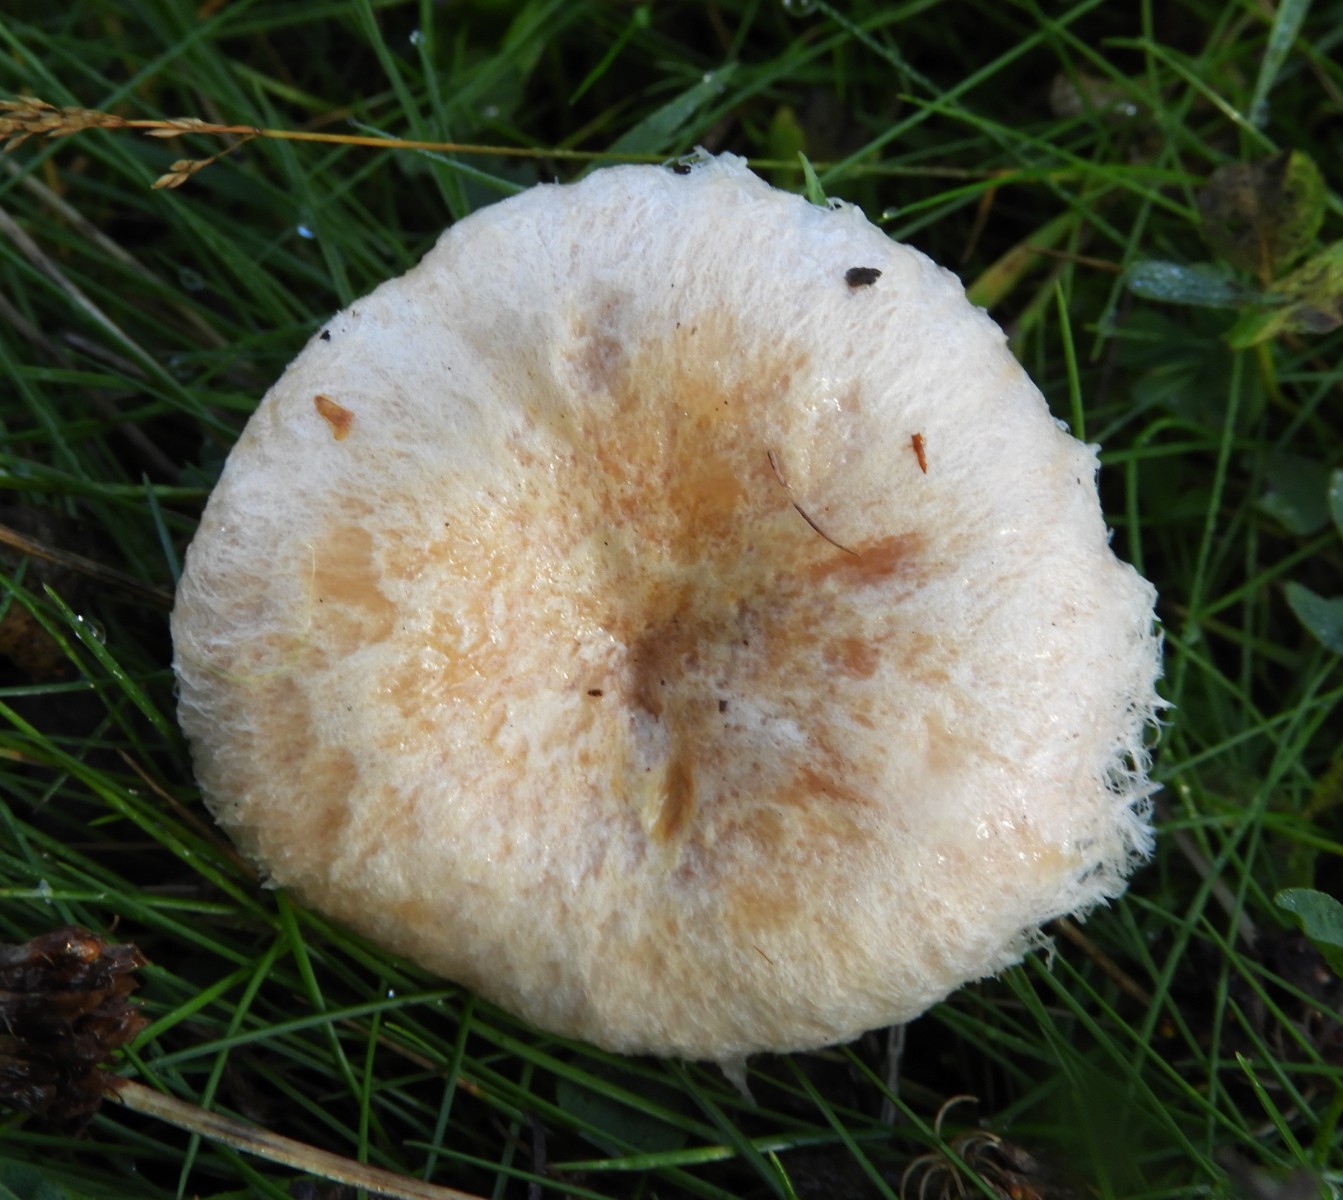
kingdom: Fungi
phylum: Basidiomycota
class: Agaricomycetes
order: Russulales
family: Russulaceae
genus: Lactarius
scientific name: Lactarius pubescens
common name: dunet mælkehat
